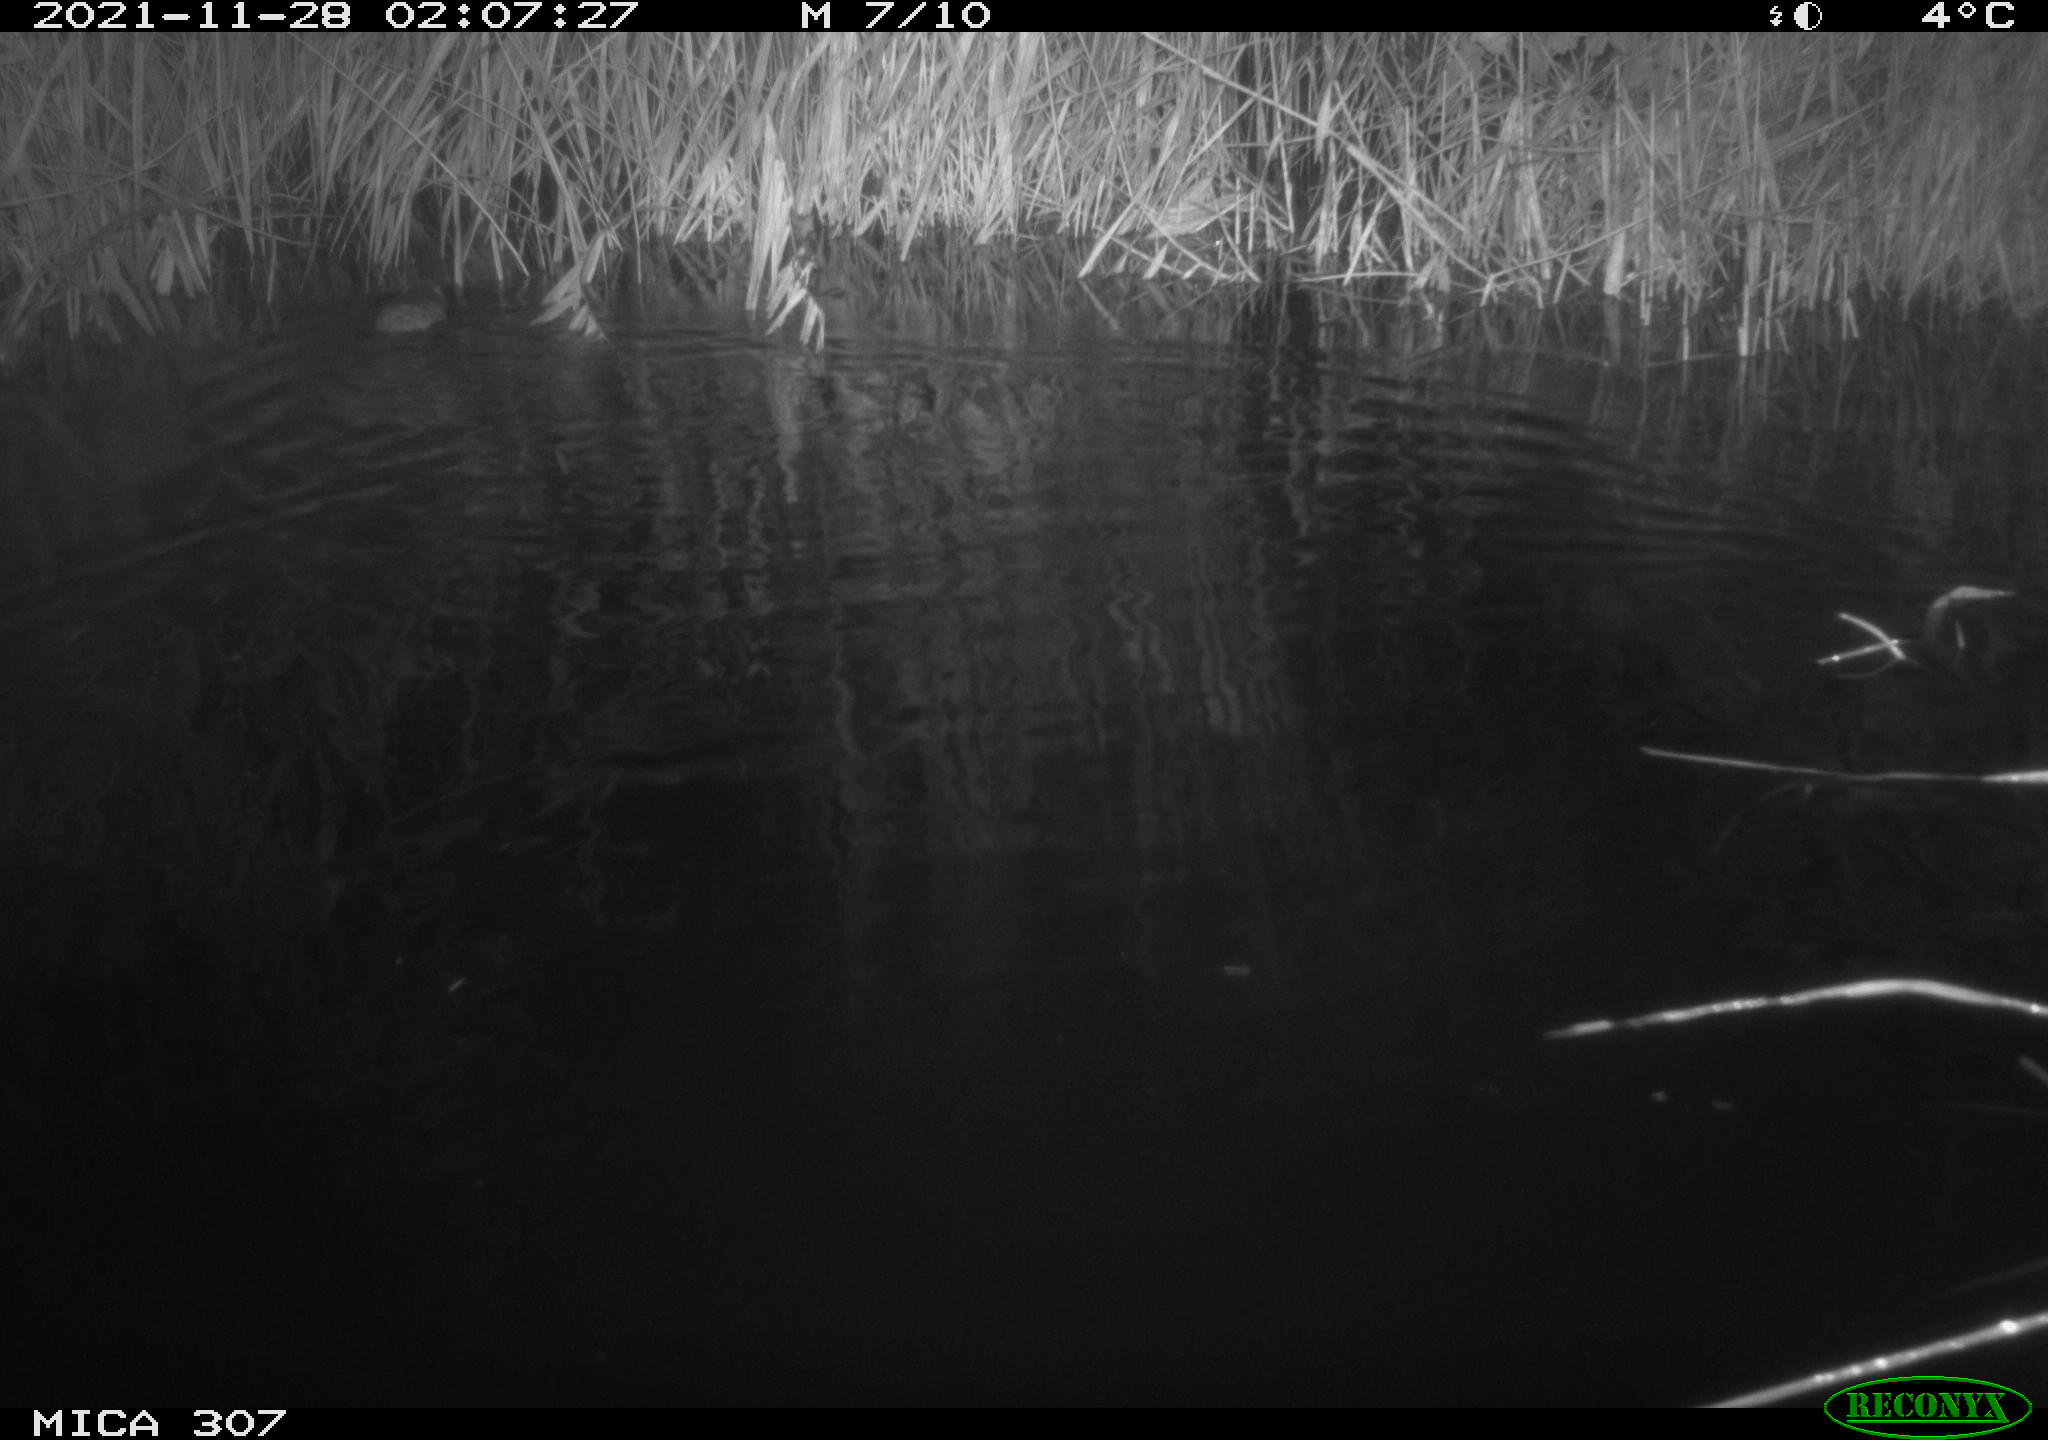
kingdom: Animalia
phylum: Chordata
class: Mammalia
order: Rodentia
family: Muridae
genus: Rattus
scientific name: Rattus norvegicus
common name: Brown rat
